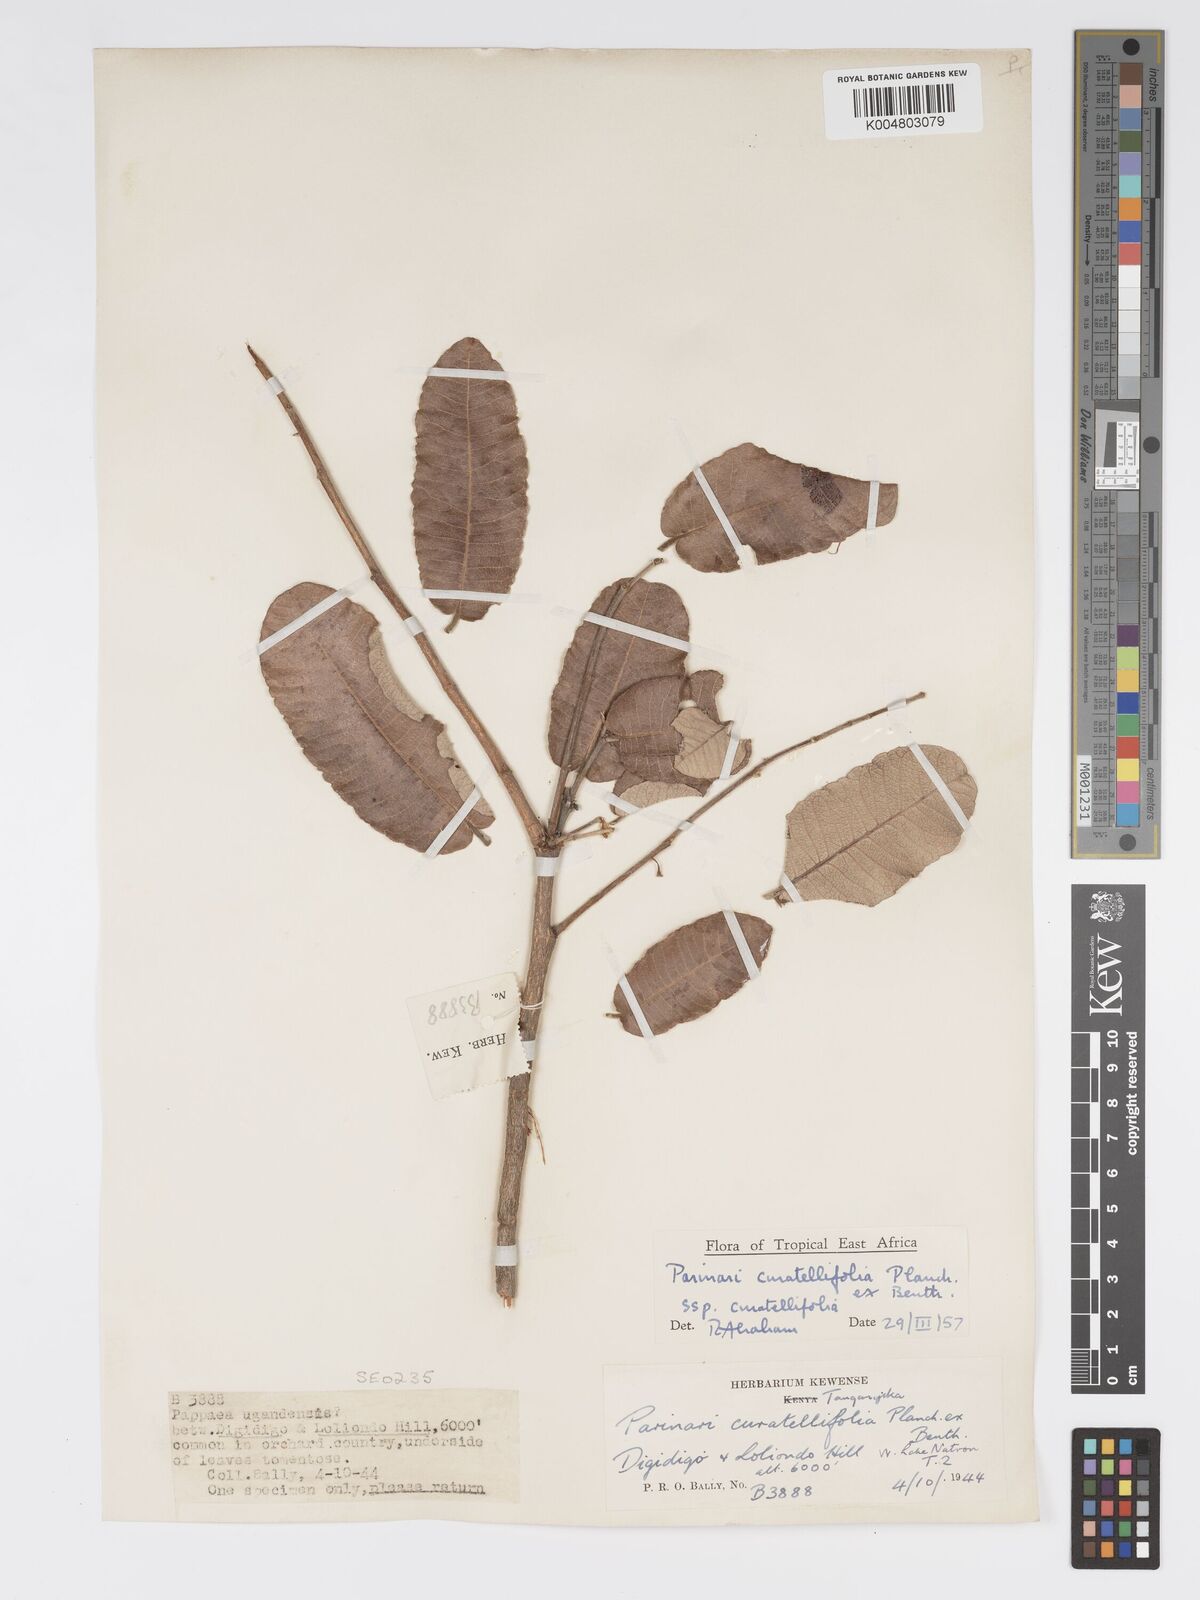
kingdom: Plantae
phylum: Tracheophyta
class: Magnoliopsida
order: Malpighiales
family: Chrysobalanaceae
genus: Parinari
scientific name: Parinari curatellifolia
